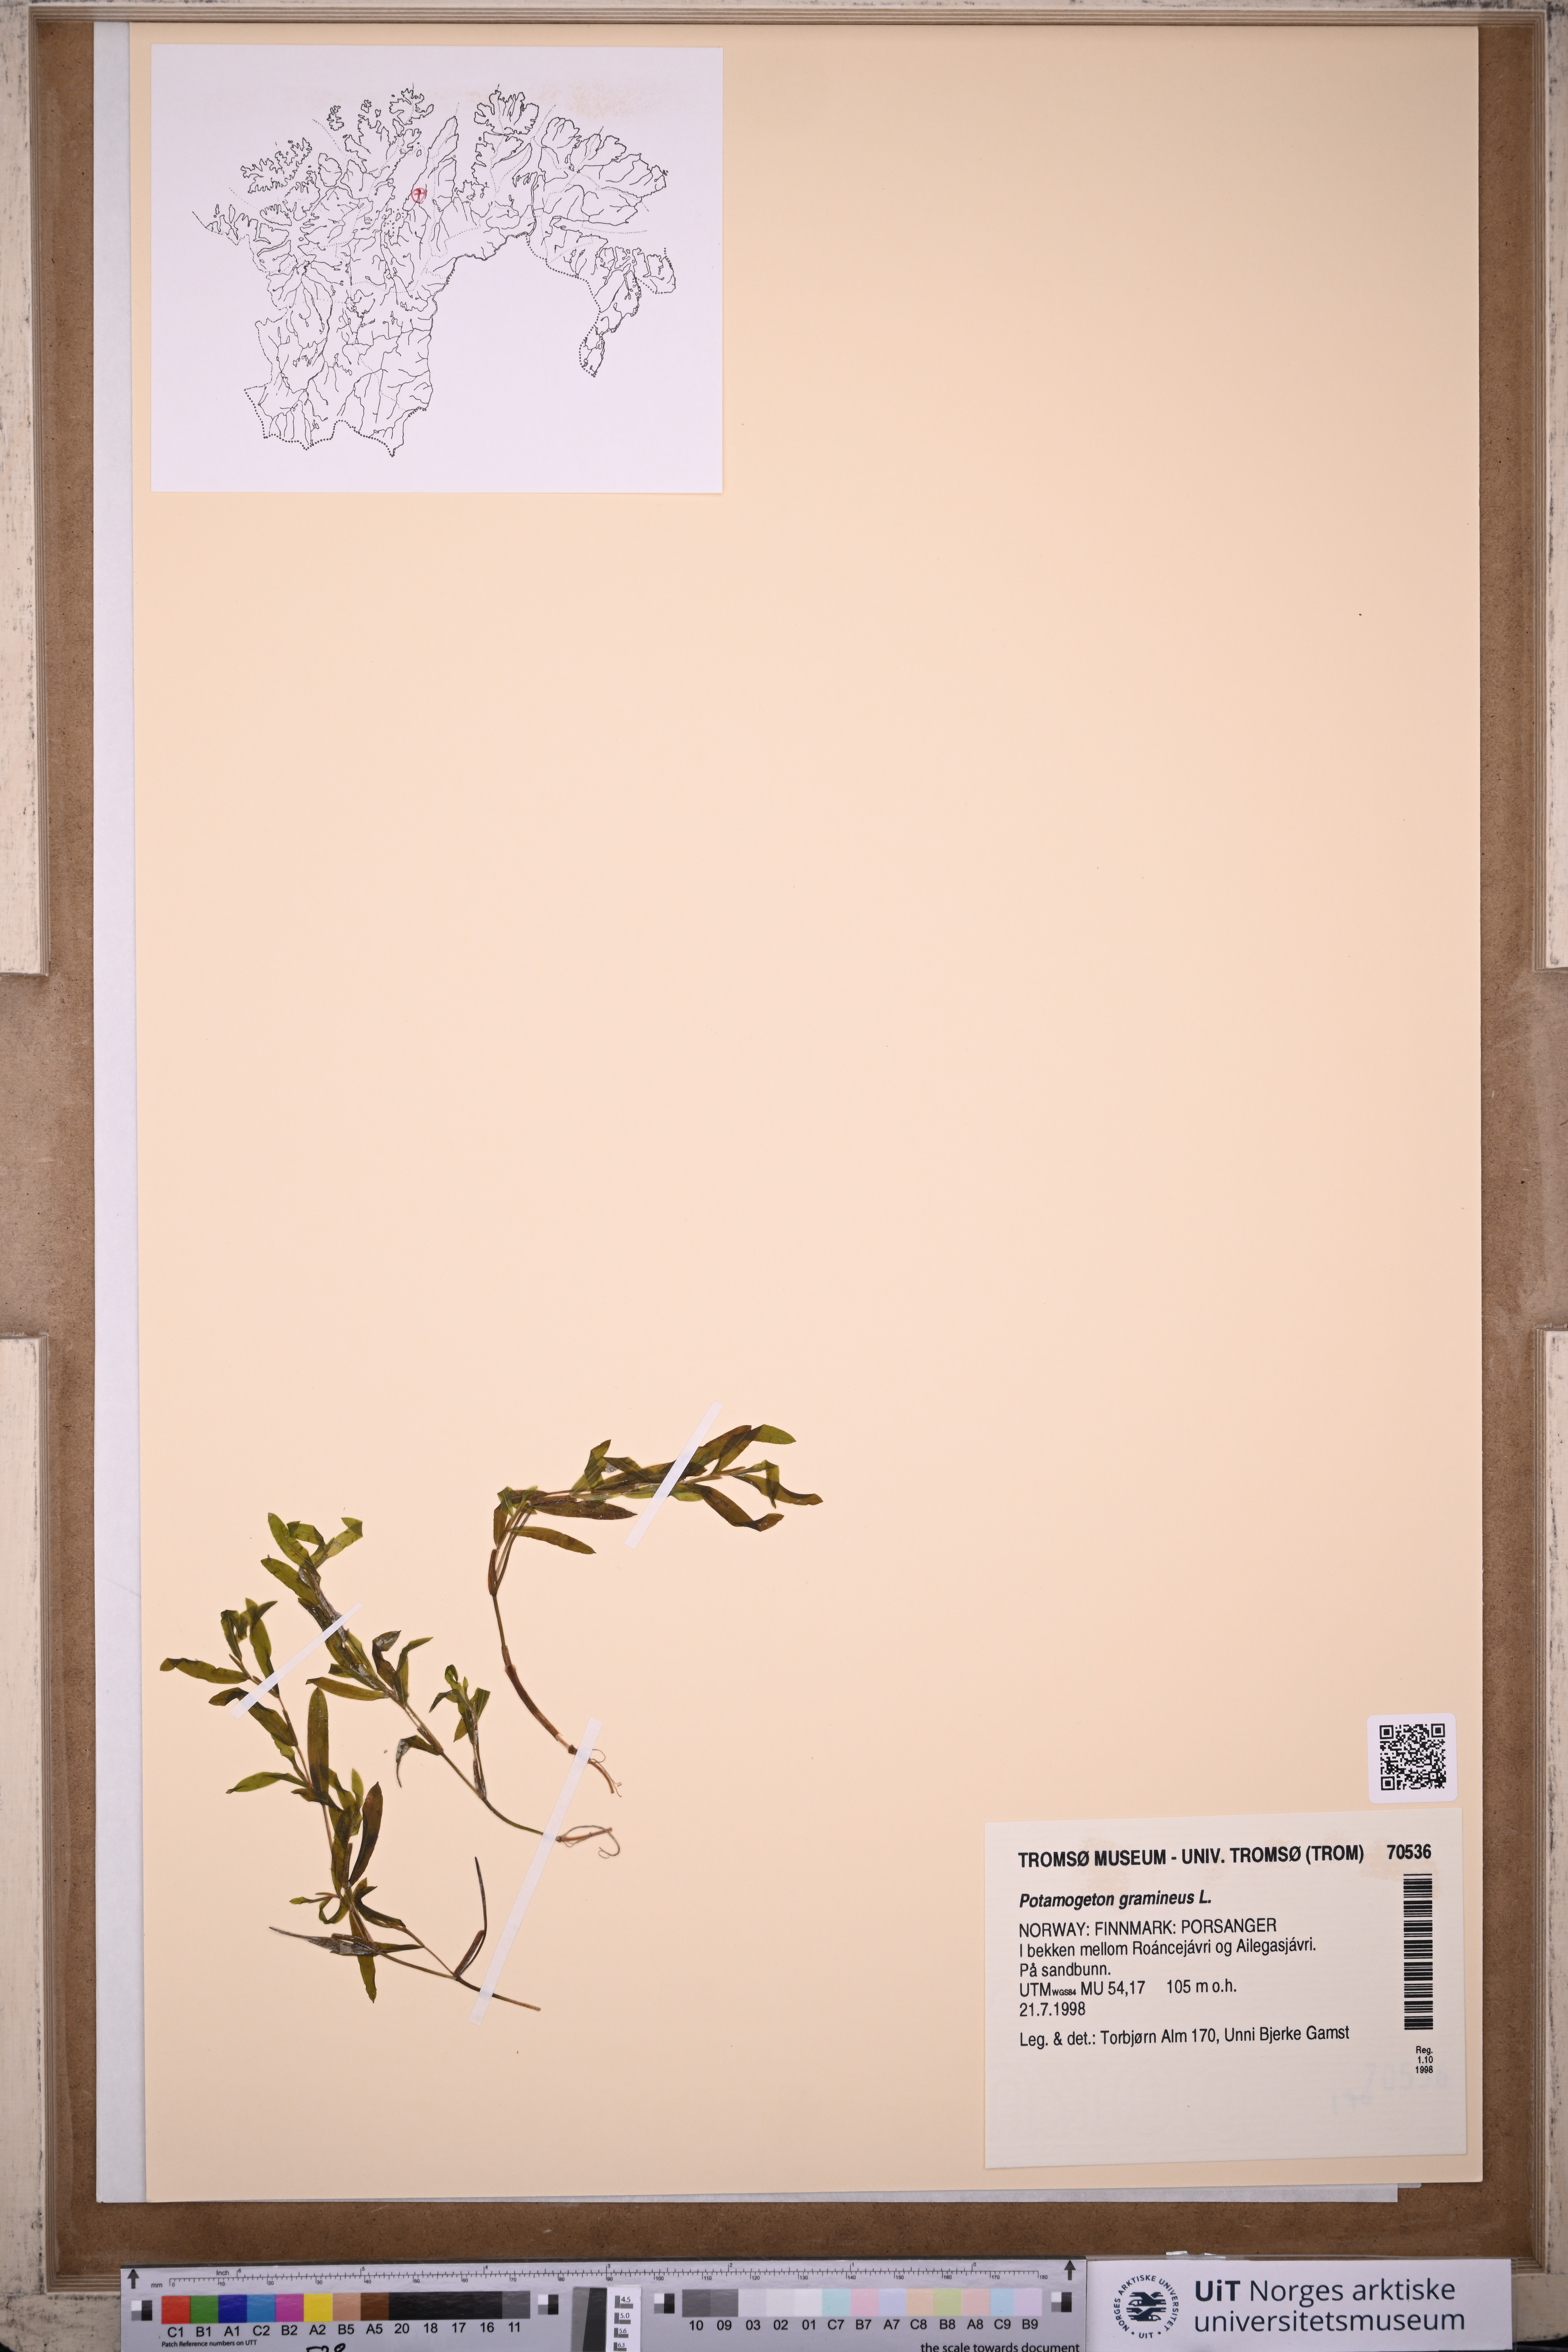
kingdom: Plantae
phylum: Tracheophyta
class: Liliopsida
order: Alismatales
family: Potamogetonaceae
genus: Potamogeton
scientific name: Potamogeton gramineus
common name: Various-leaved pondweed
